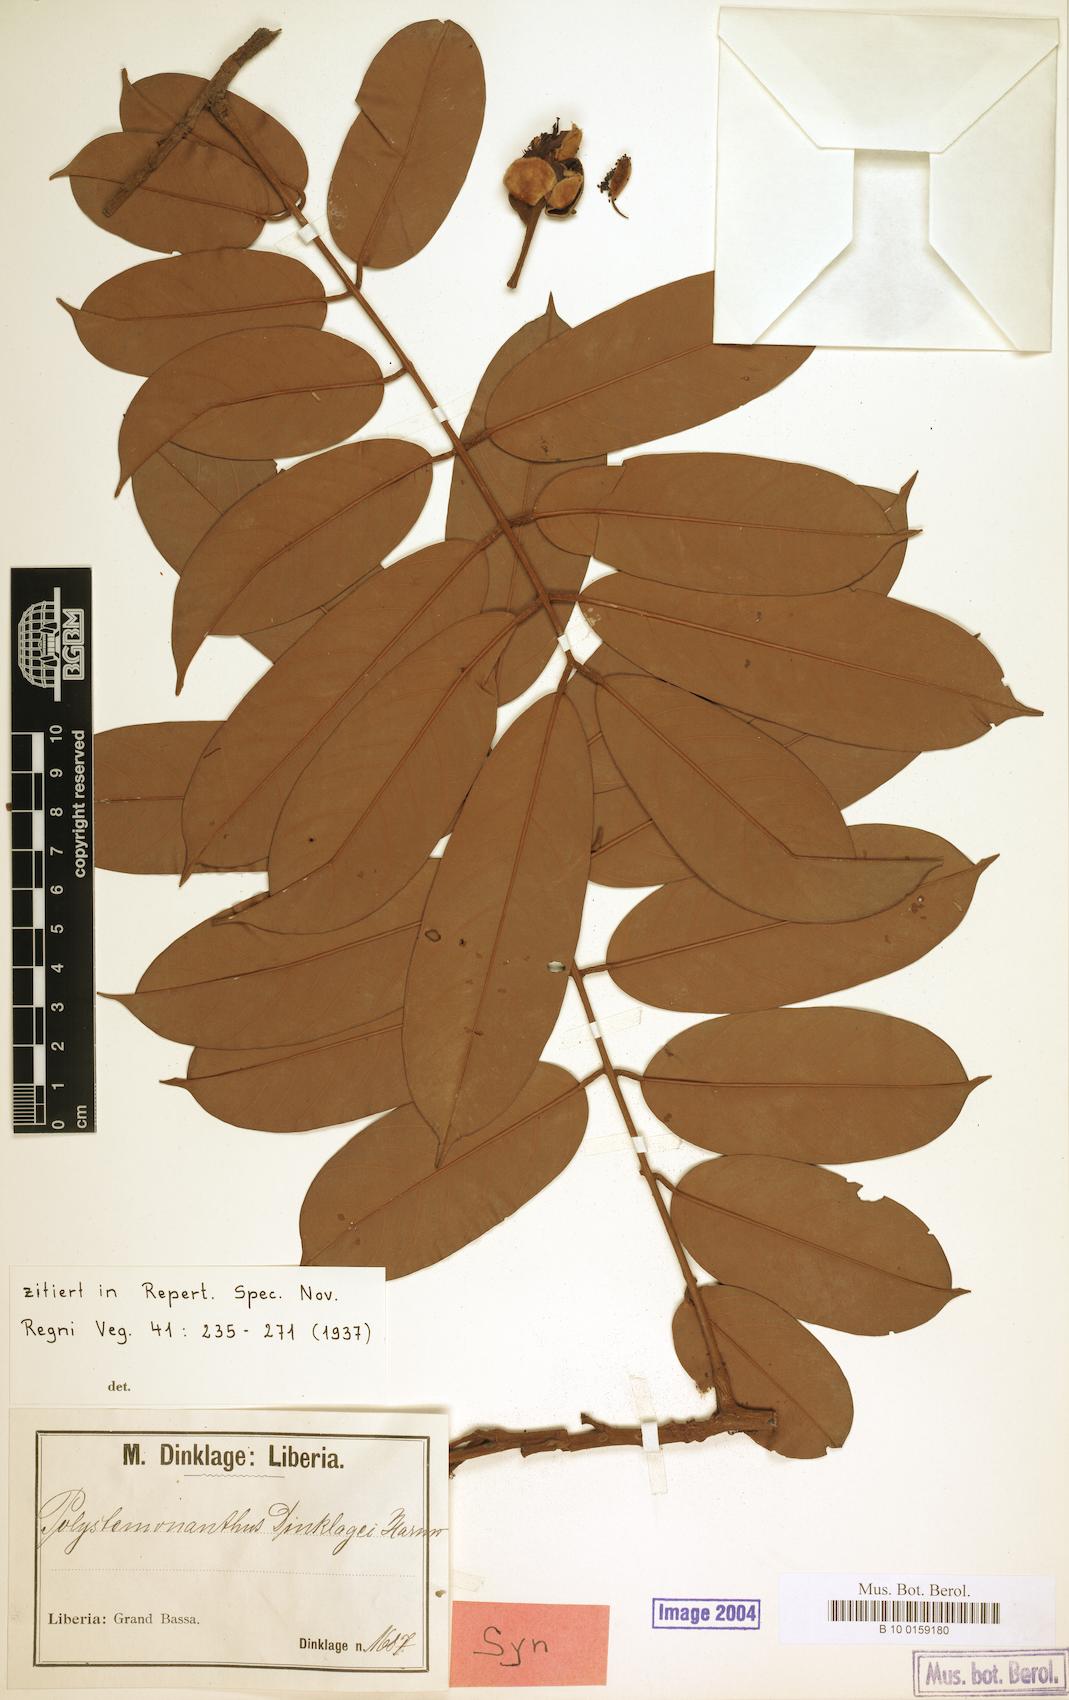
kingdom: Plantae
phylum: Tracheophyta
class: Magnoliopsida
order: Fabales
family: Fabaceae
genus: Polystemonanthus
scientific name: Polystemonanthus dinklagei
